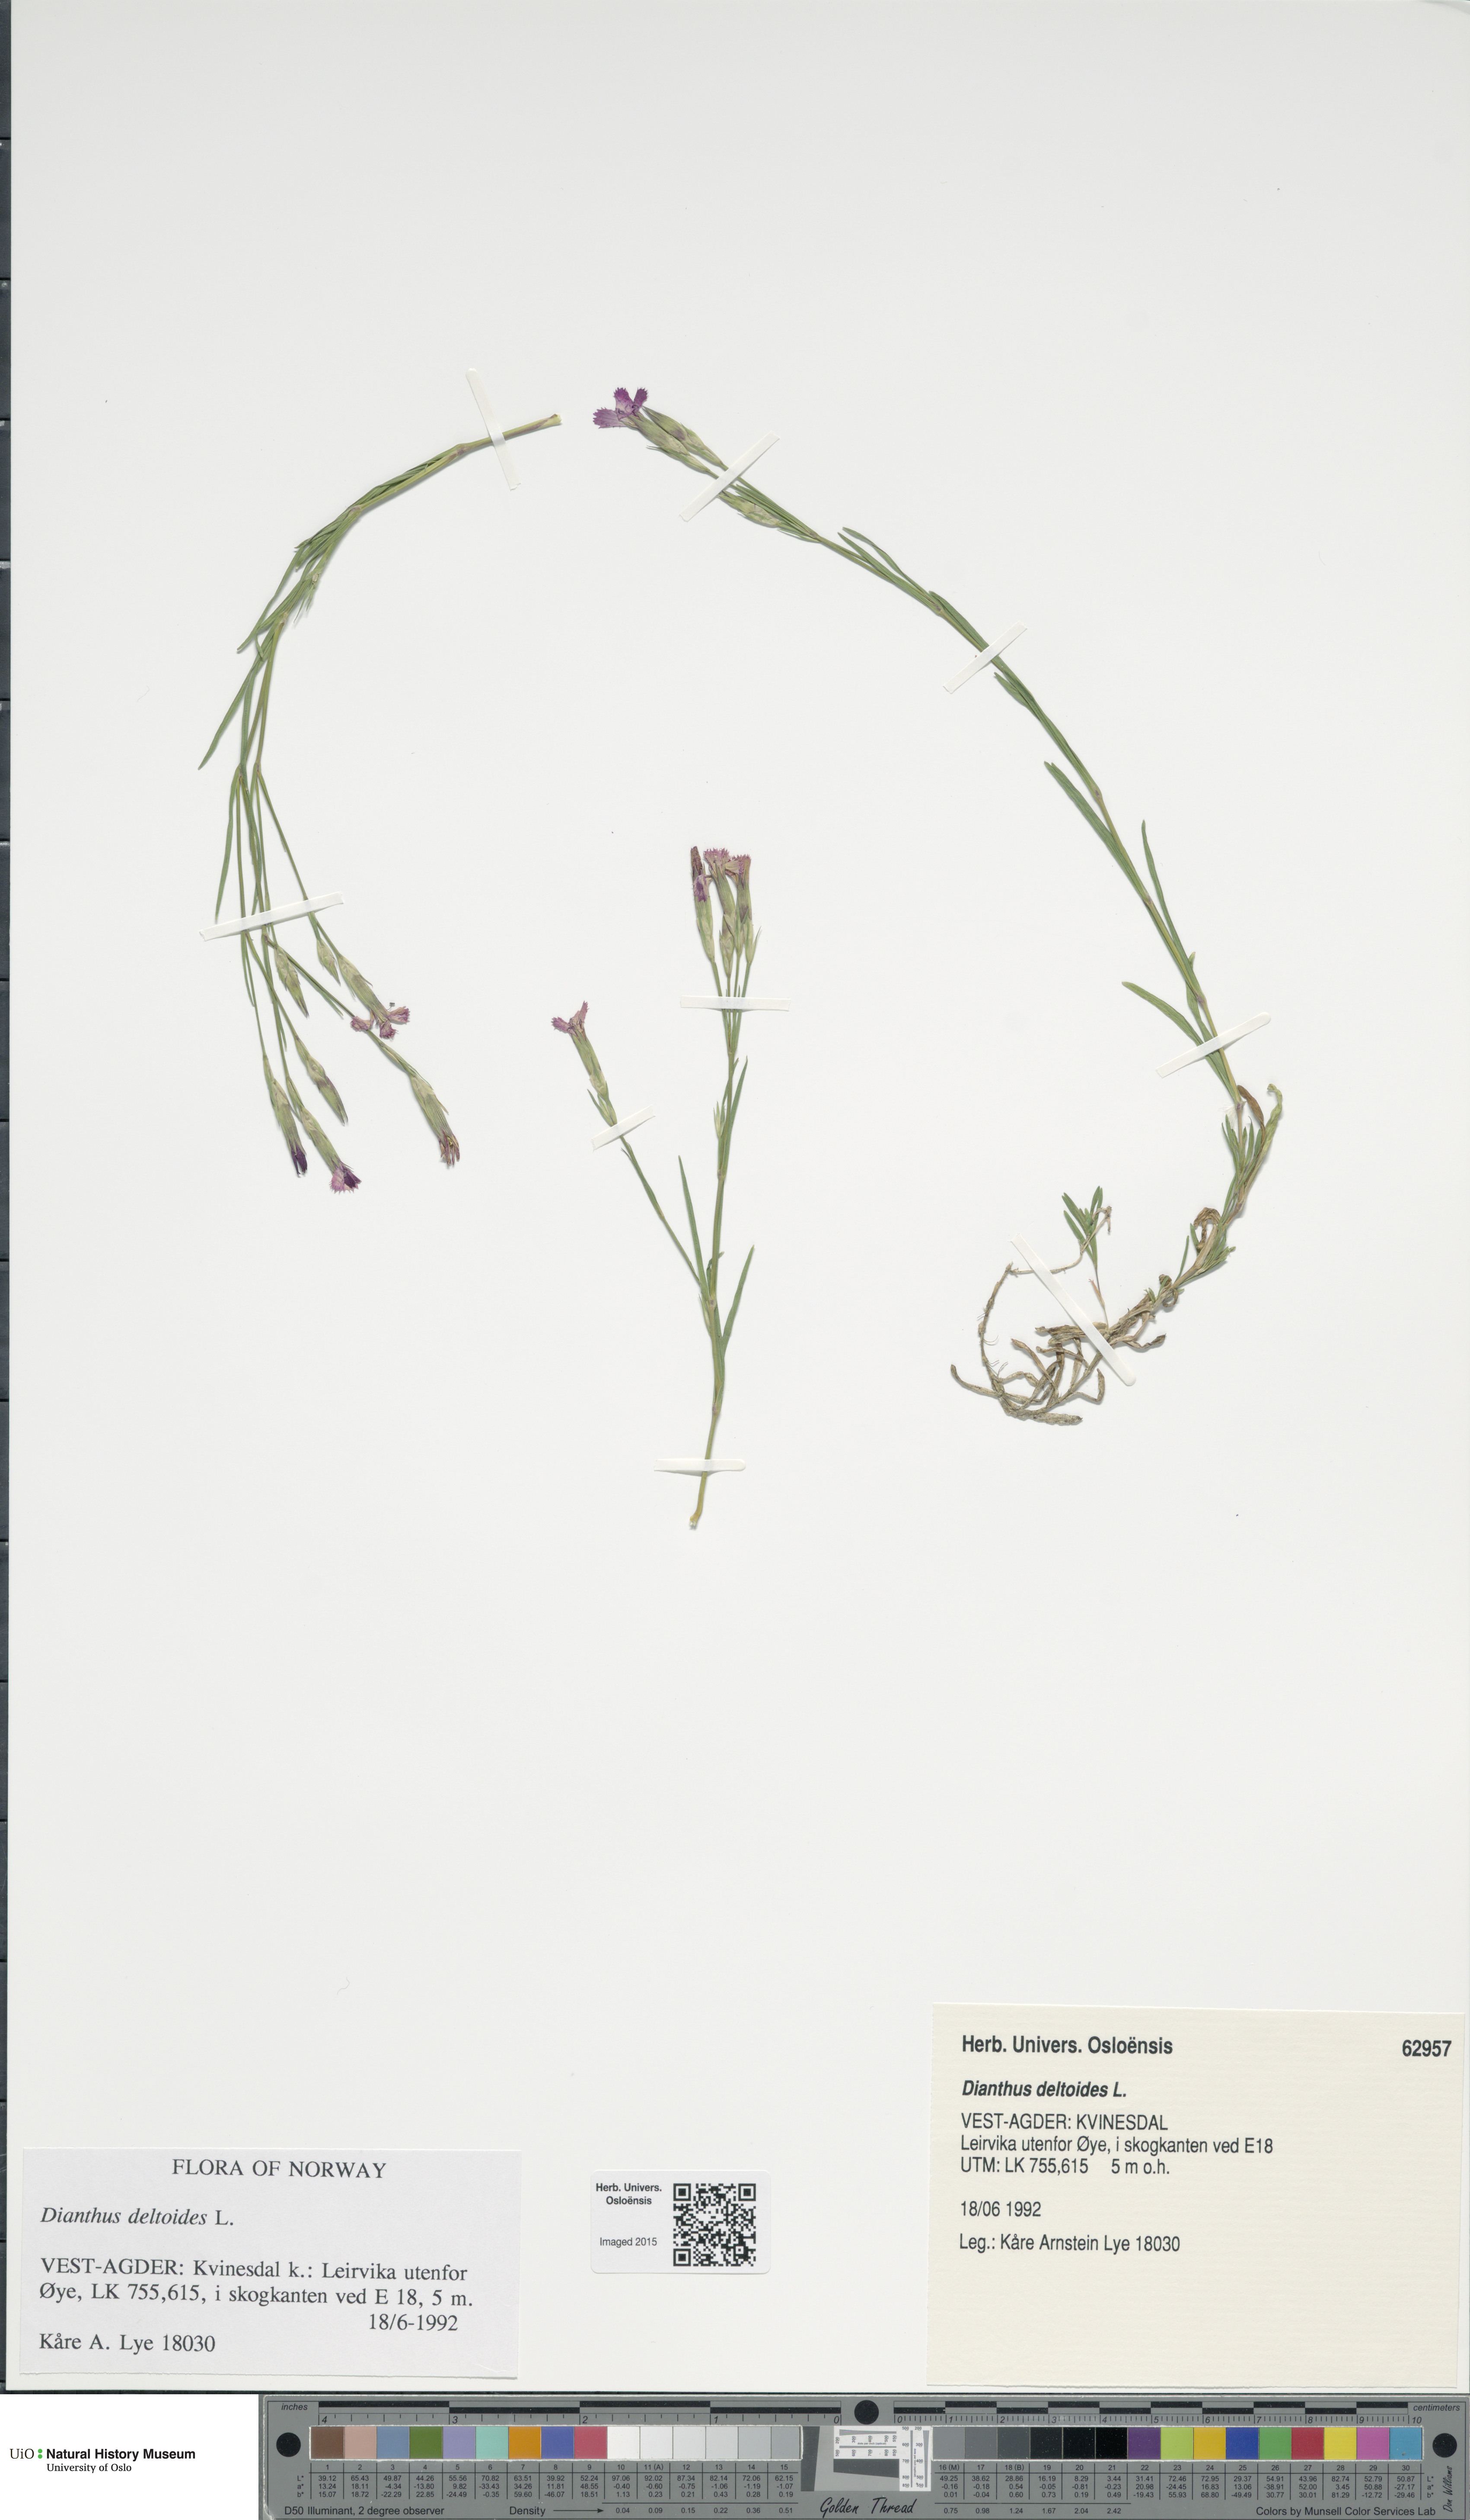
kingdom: Plantae
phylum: Tracheophyta
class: Magnoliopsida
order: Caryophyllales
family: Caryophyllaceae
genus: Dianthus
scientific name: Dianthus deltoides
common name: Maiden pink
